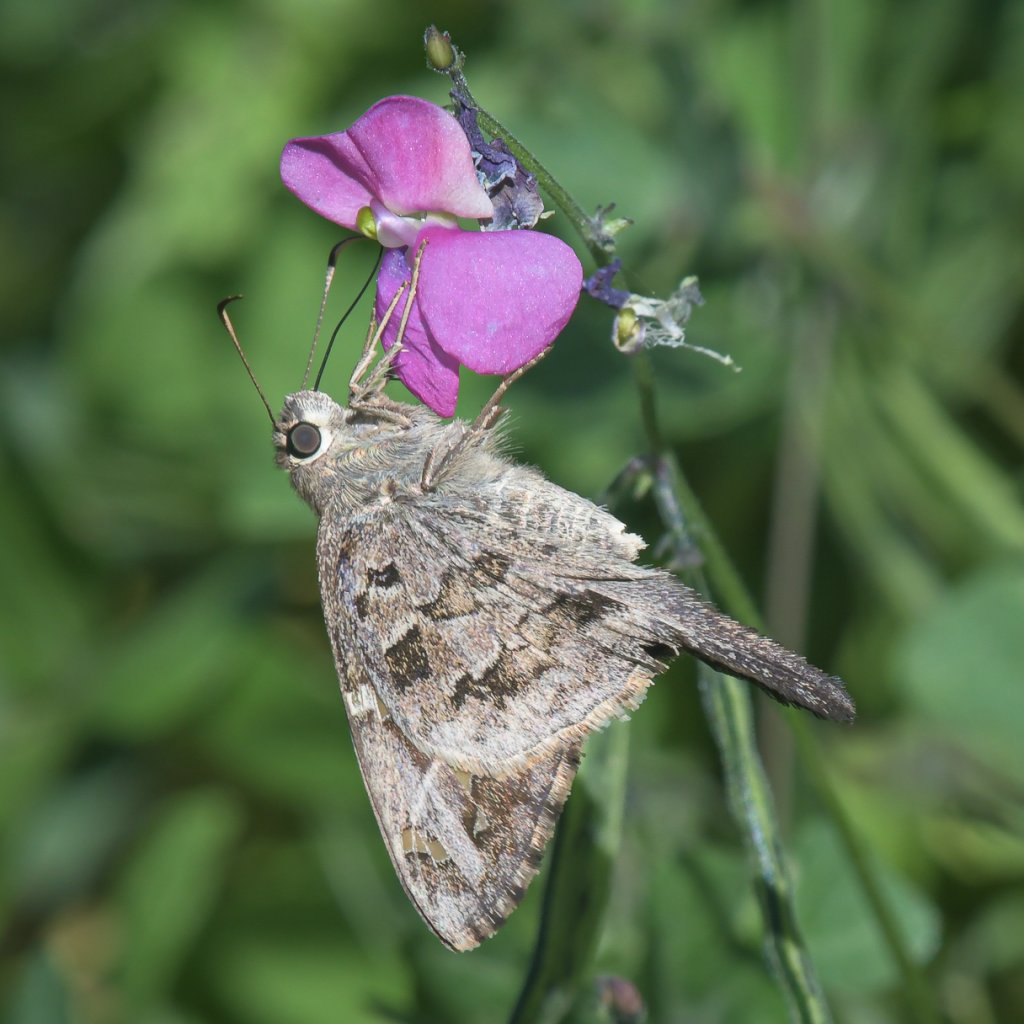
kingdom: Animalia
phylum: Arthropoda
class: Insecta
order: Lepidoptera
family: Hesperiidae
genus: Urbanus
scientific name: Urbanus dorantes
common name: Dorantes Longtail
